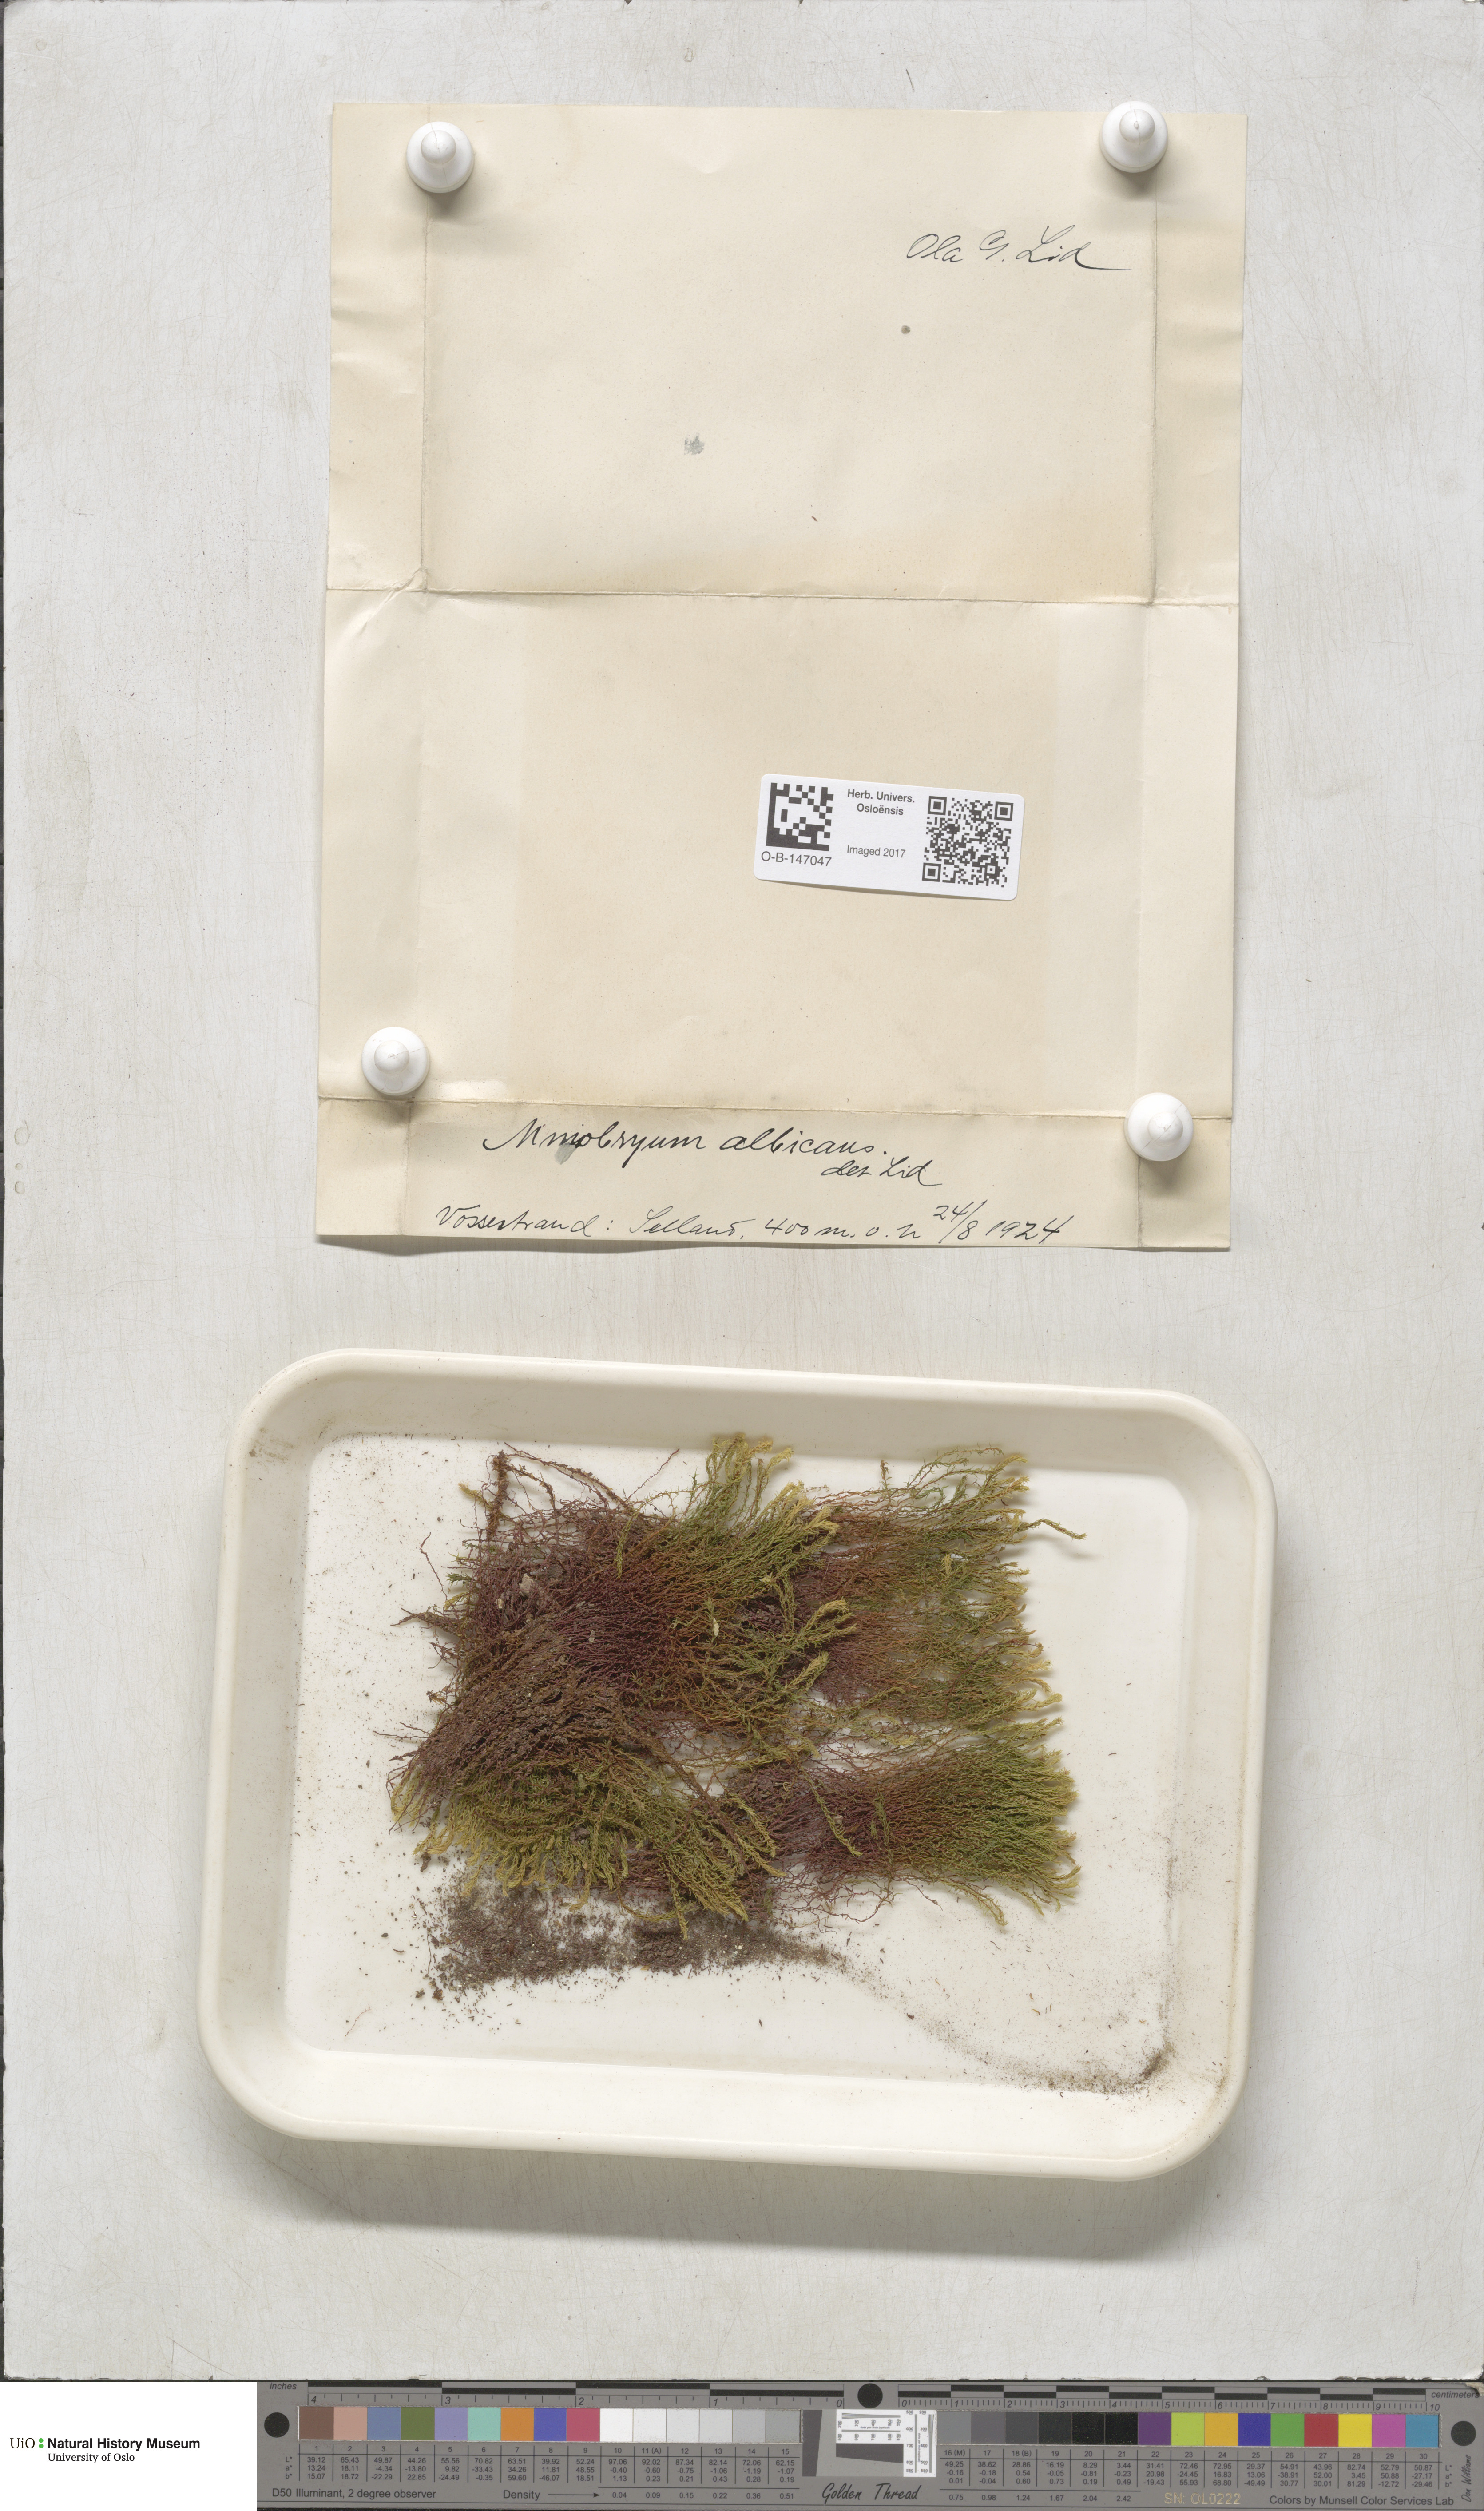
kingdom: Plantae
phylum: Bryophyta
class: Bryopsida
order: Bryales
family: Mniaceae
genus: Pohlia
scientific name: Pohlia wahlenbergii
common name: Wahlenberg's nodding moss
